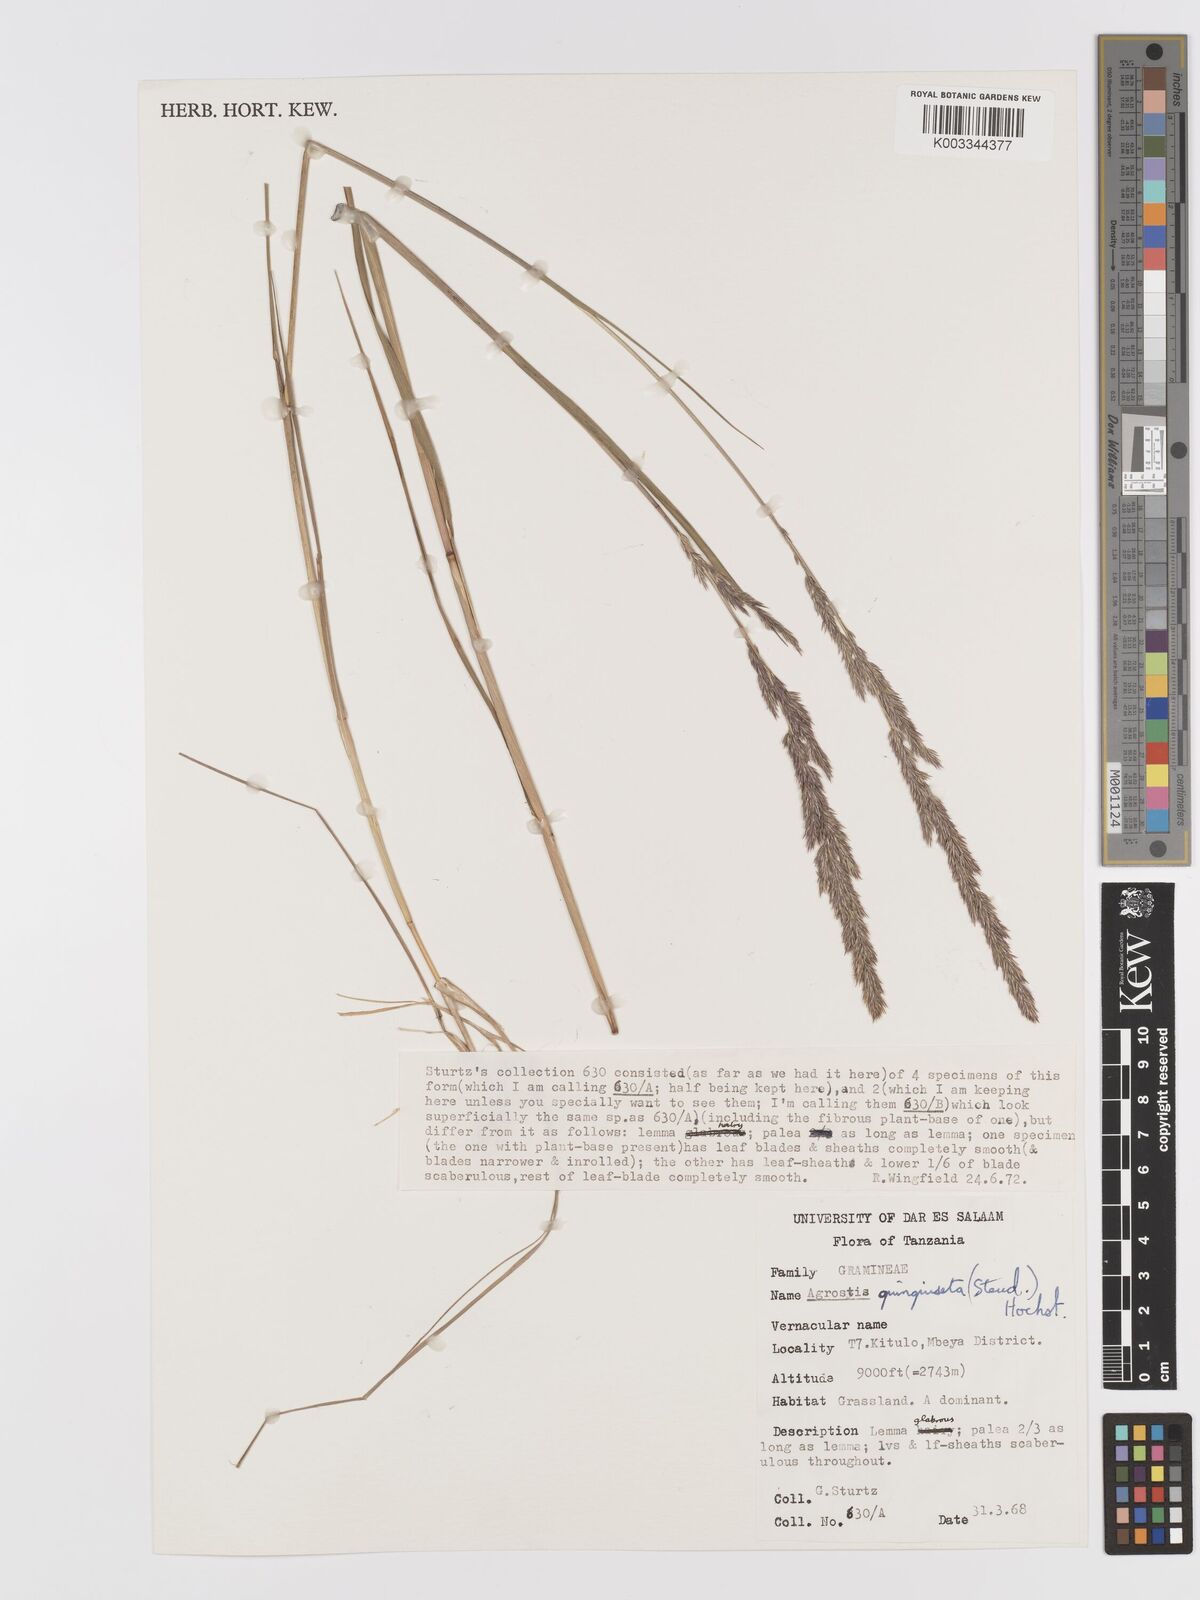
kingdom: Plantae
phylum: Tracheophyta
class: Liliopsida
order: Poales
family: Poaceae
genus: Agrostis
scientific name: Agrostis quinqueseta
